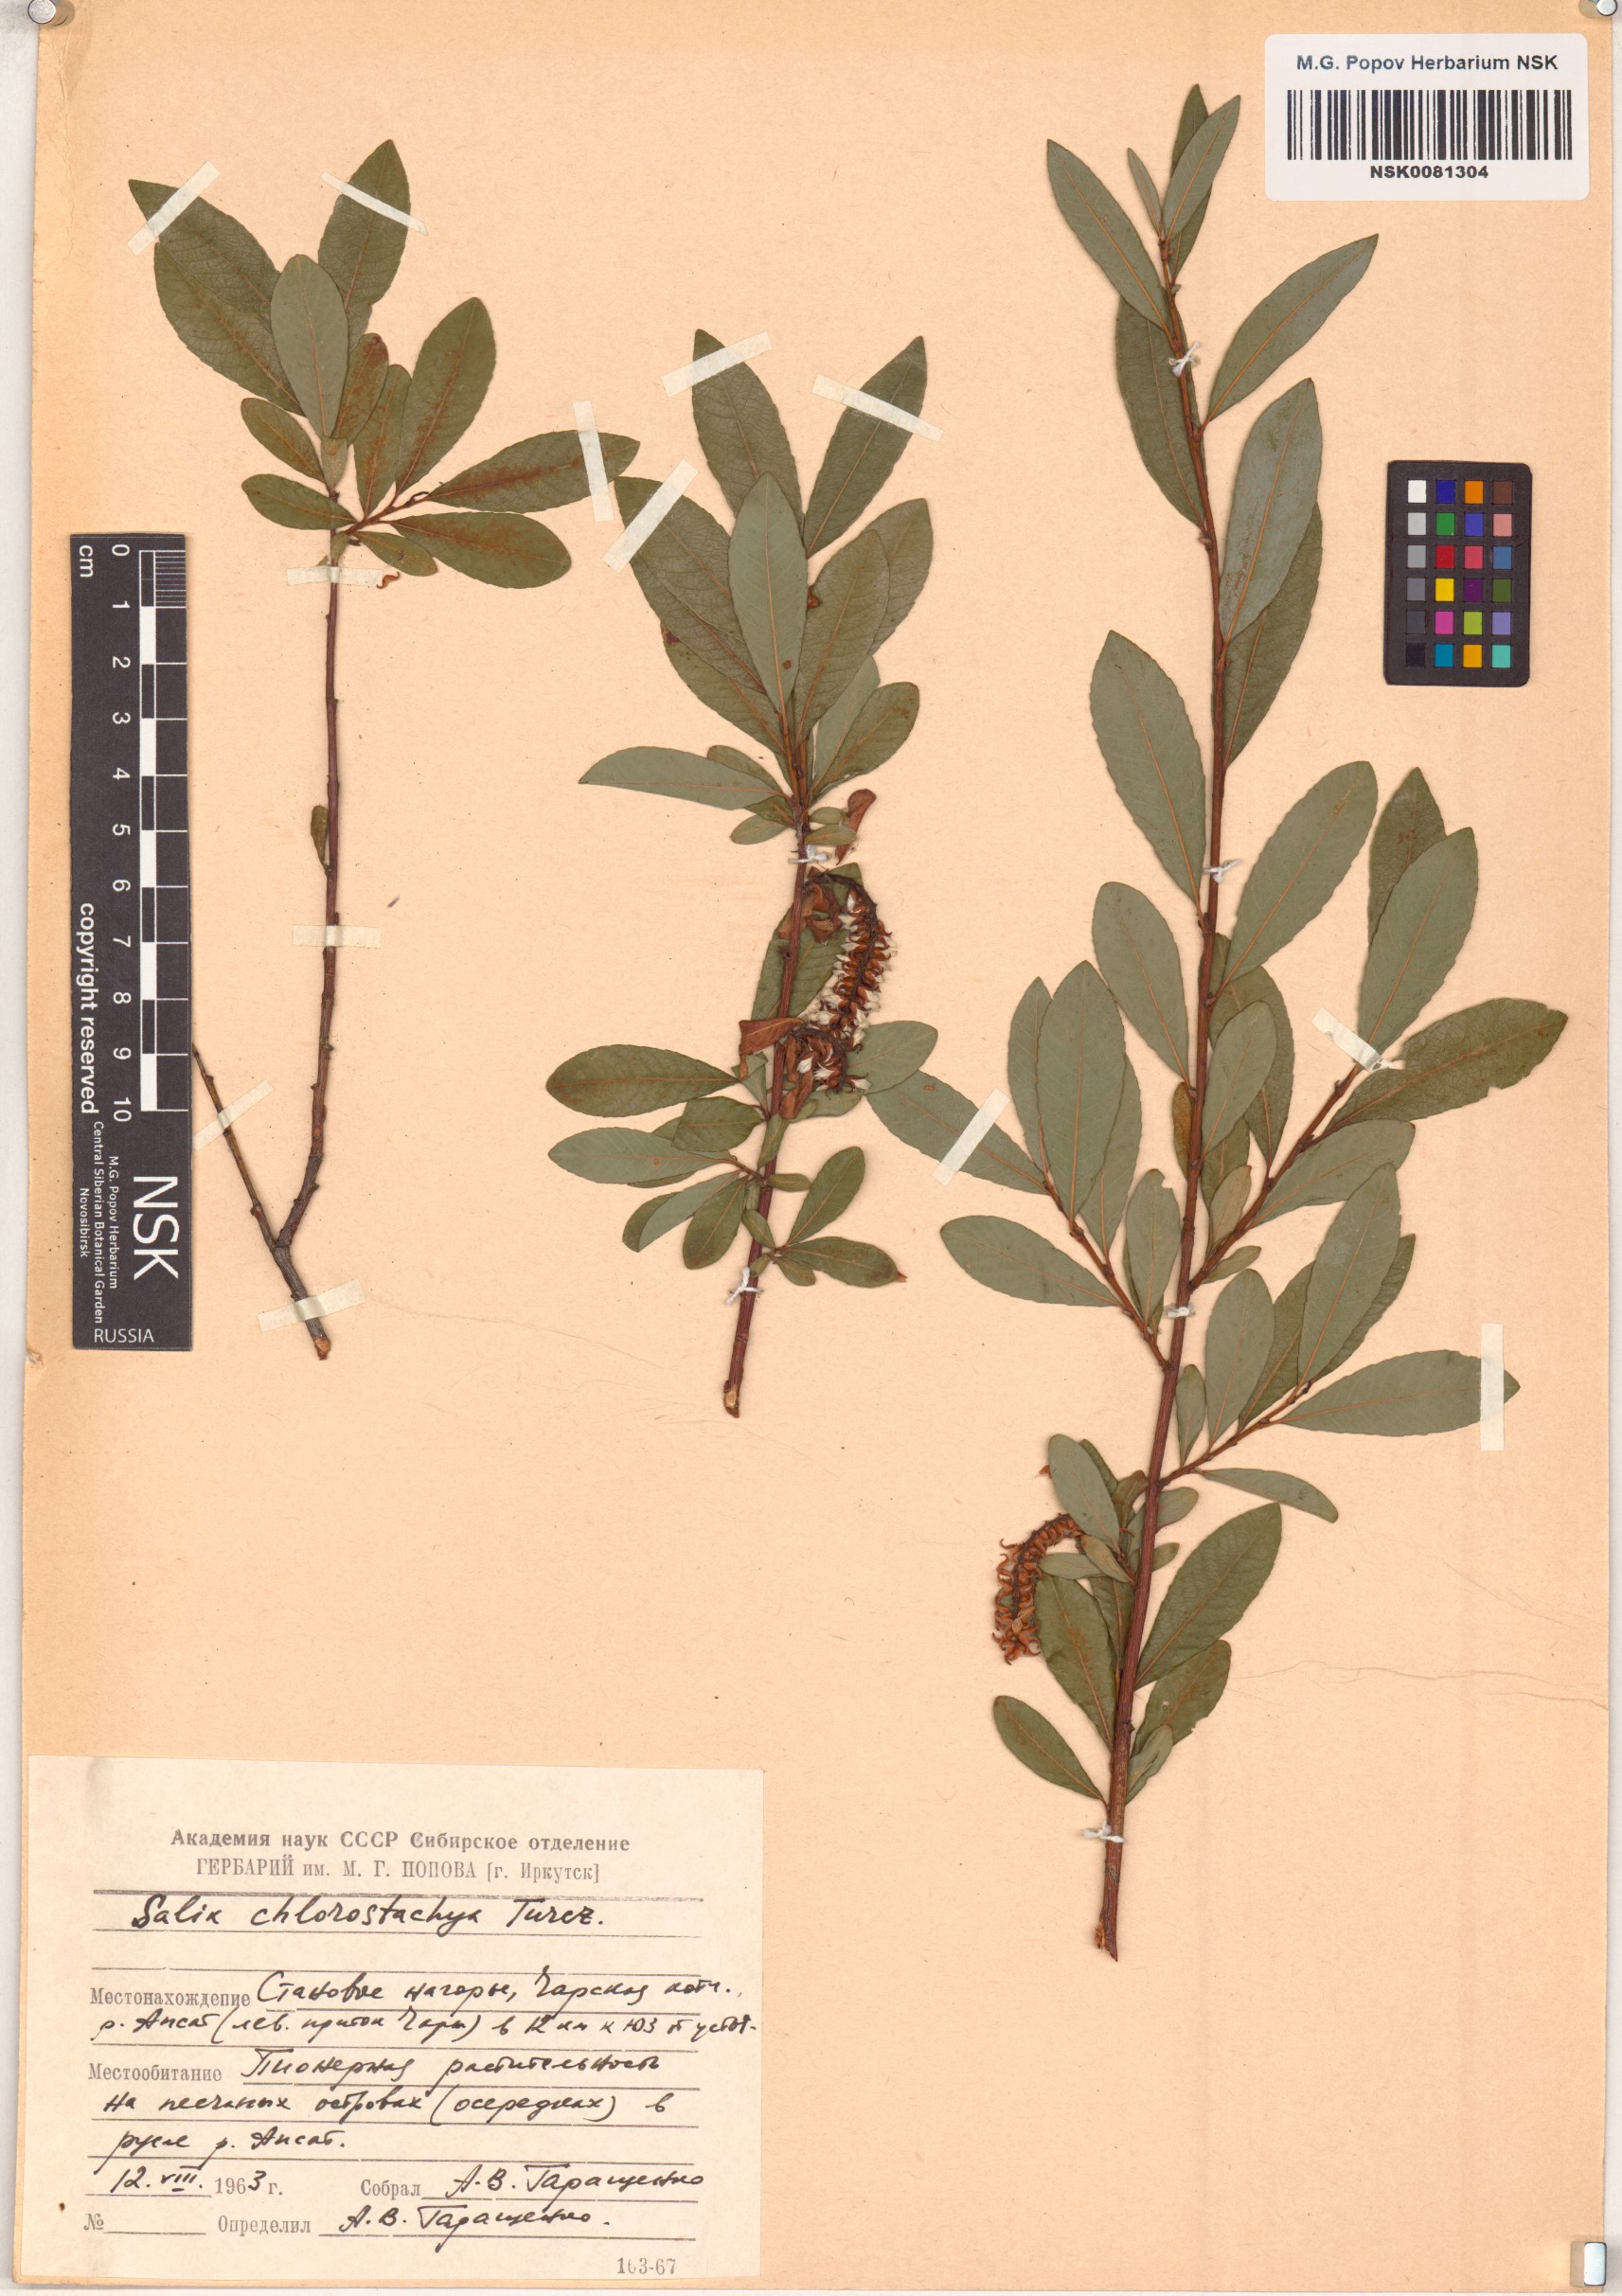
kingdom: Plantae
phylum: Tracheophyta
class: Magnoliopsida
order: Malpighiales
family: Salicaceae
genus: Salix
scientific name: Salix rhamnifolia
